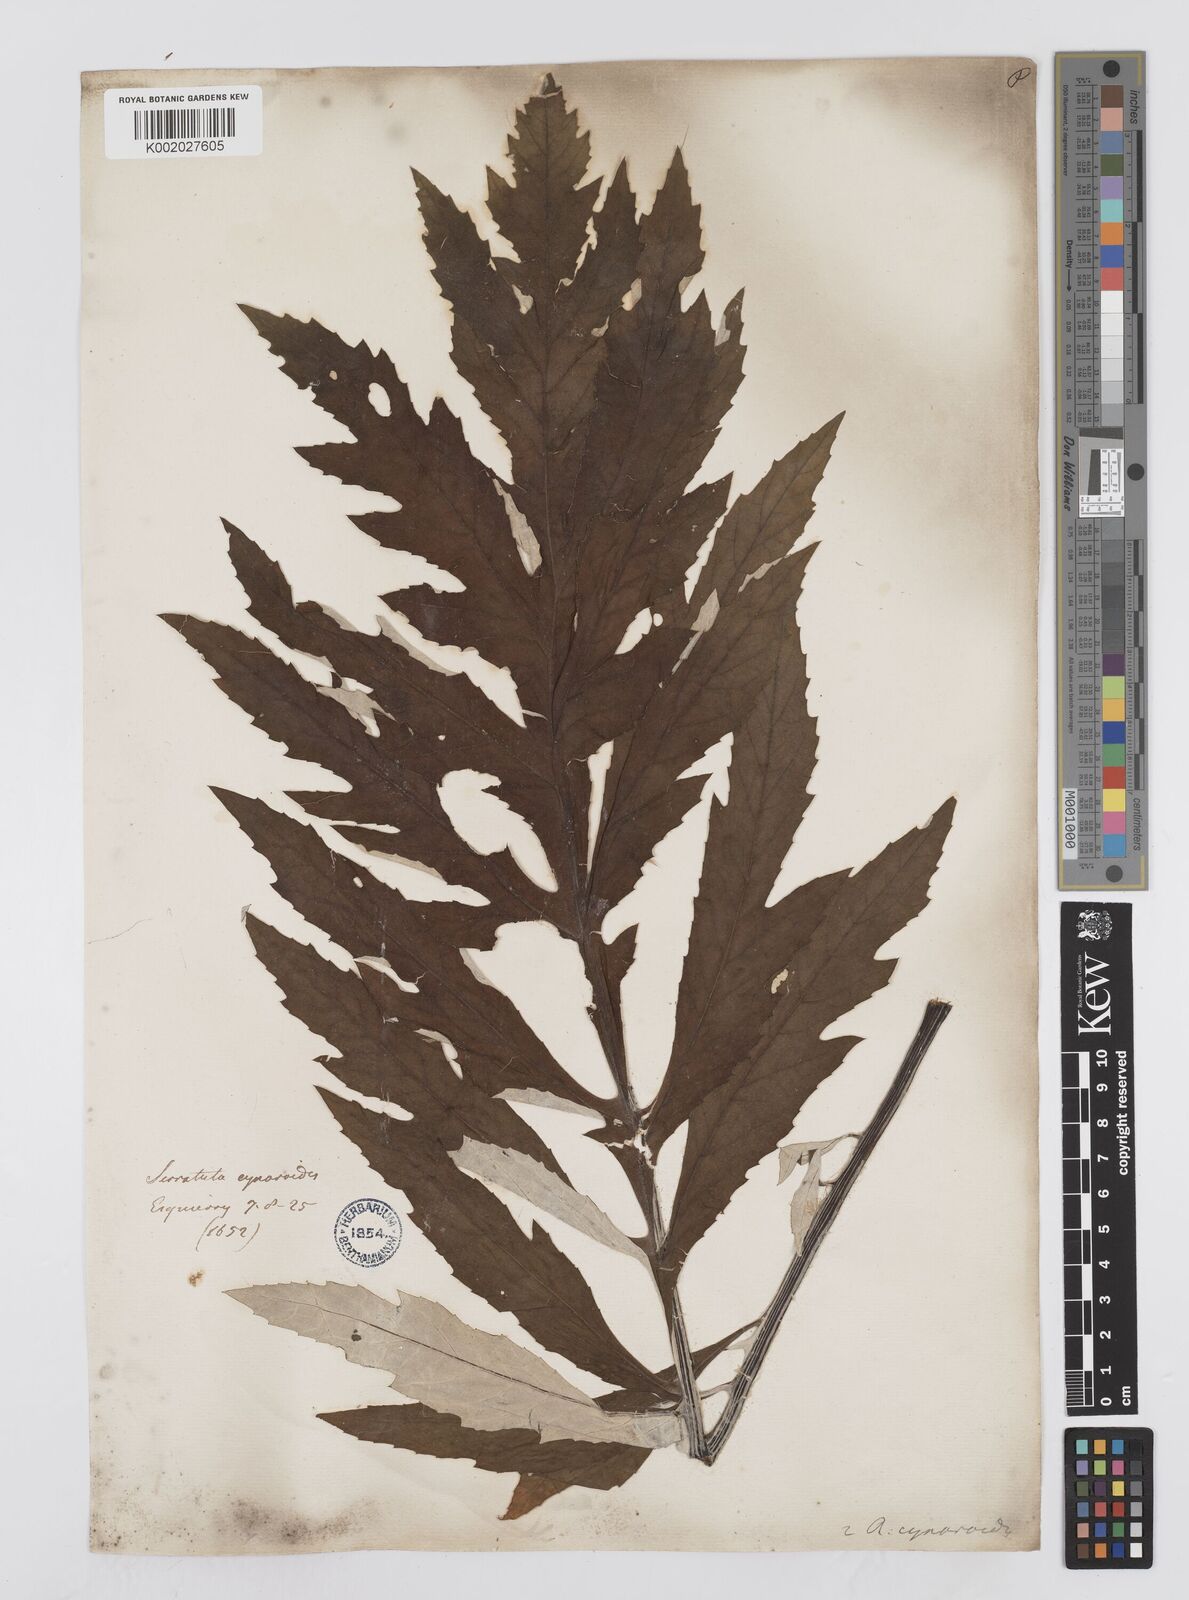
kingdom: Plantae
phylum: Tracheophyta
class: Magnoliopsida
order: Asterales
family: Asteraceae
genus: Leuzea
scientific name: Leuzea centauroides
